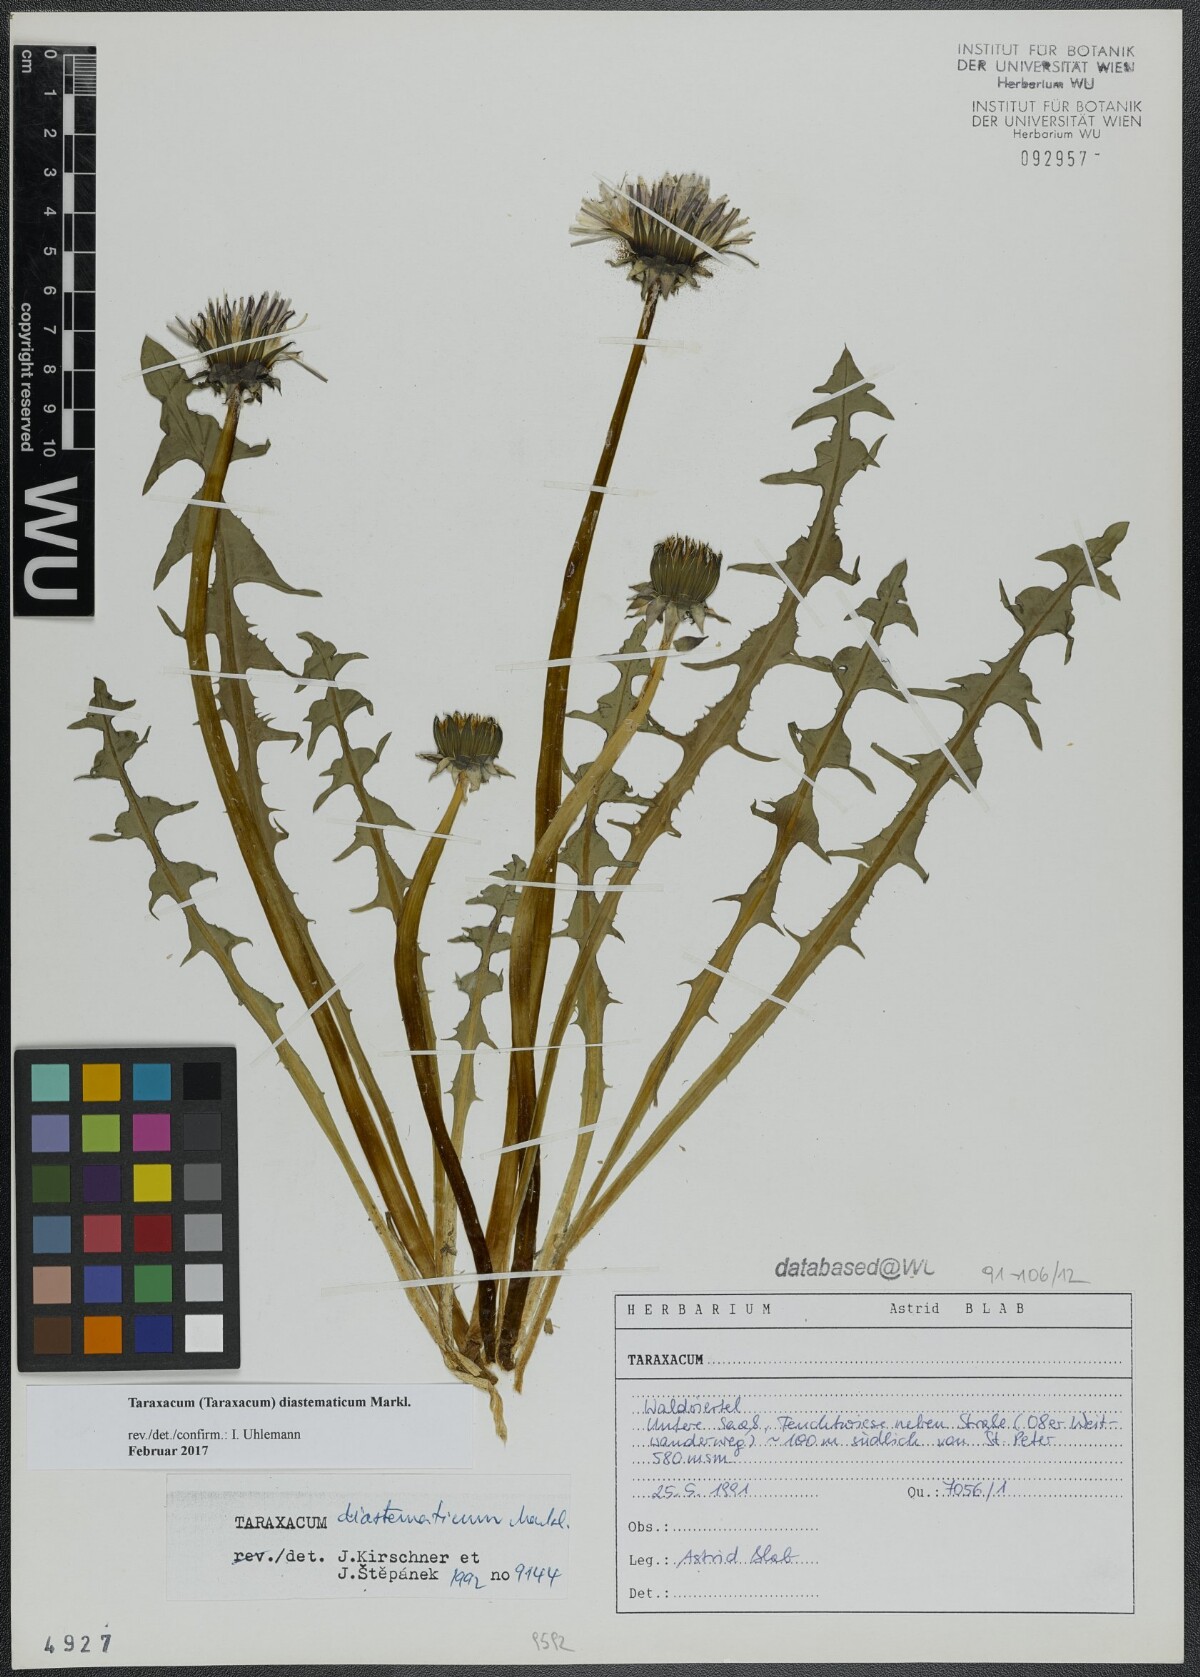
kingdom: Plantae
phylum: Tracheophyta
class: Magnoliopsida
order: Asterales
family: Asteraceae
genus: Taraxacum
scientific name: Taraxacum diastematicum
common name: Bulbous-lobed dandelion
